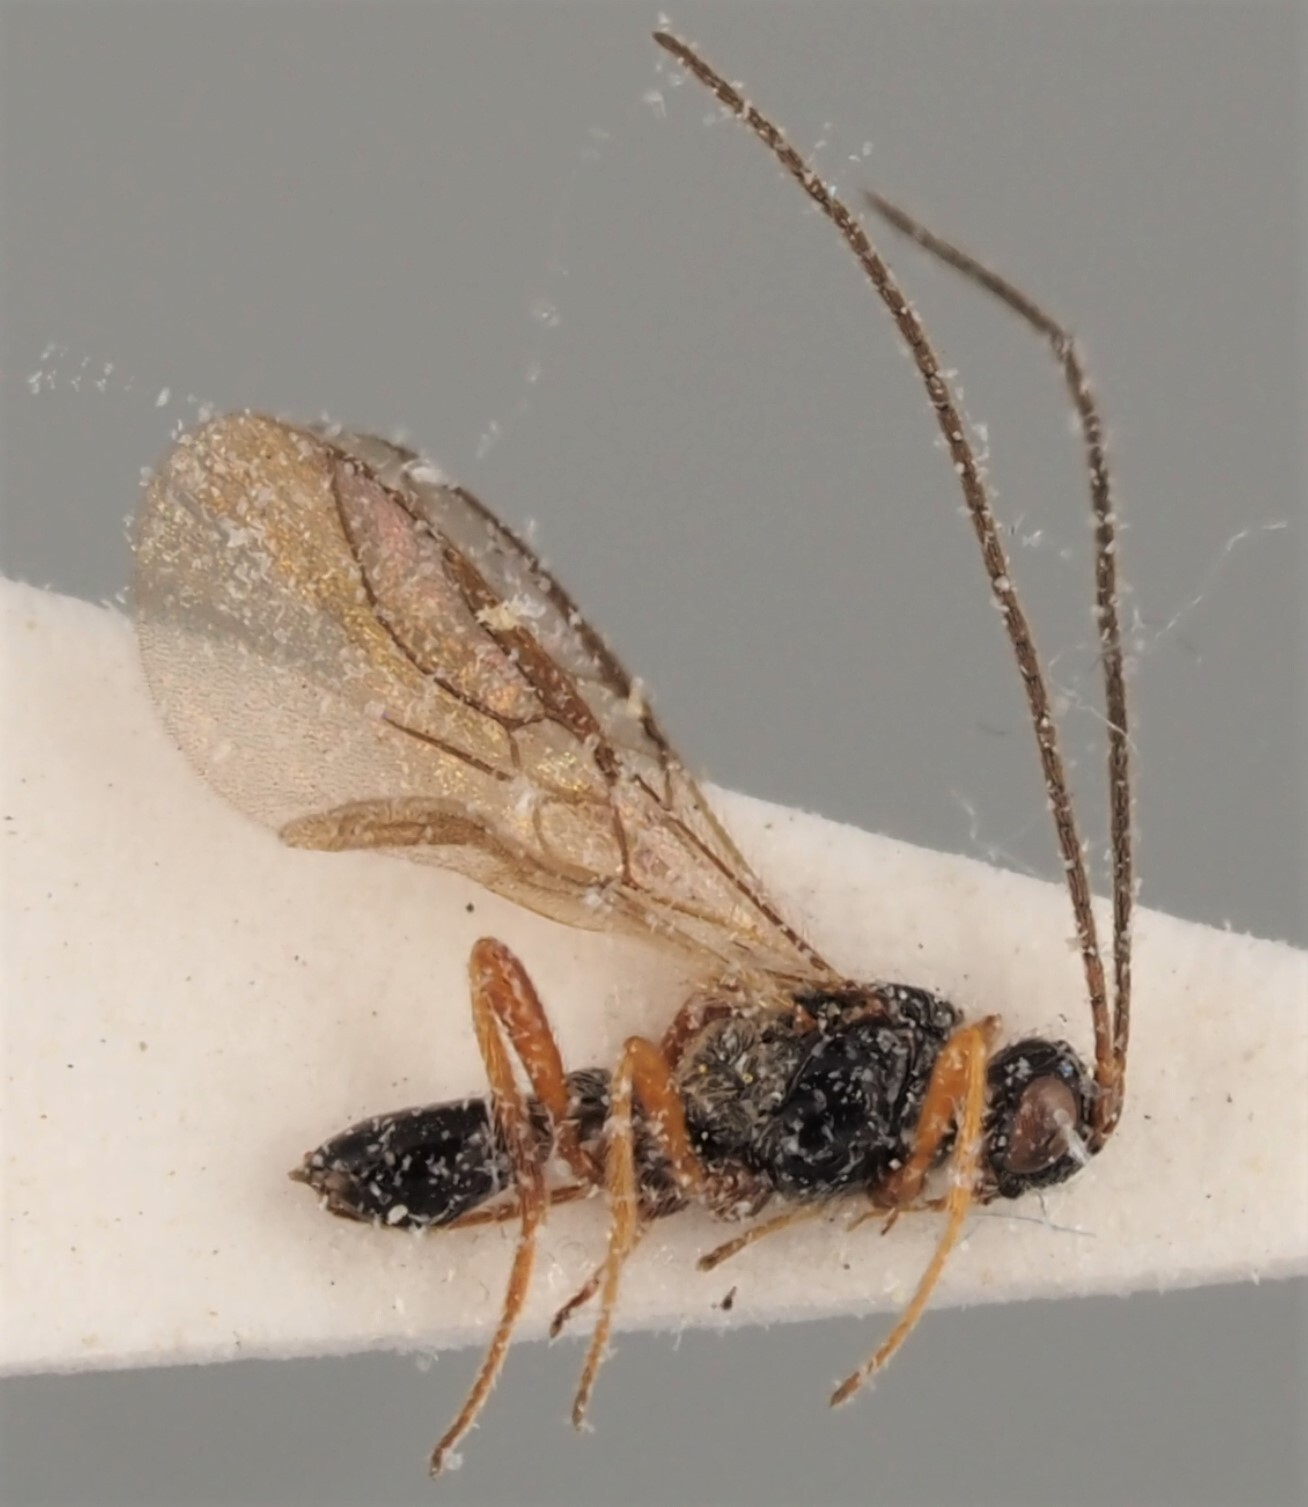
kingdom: Animalia
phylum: Arthropoda
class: Insecta
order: Hymenoptera
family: Braconidae
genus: Chorebus
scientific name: Chorebus lugubris
